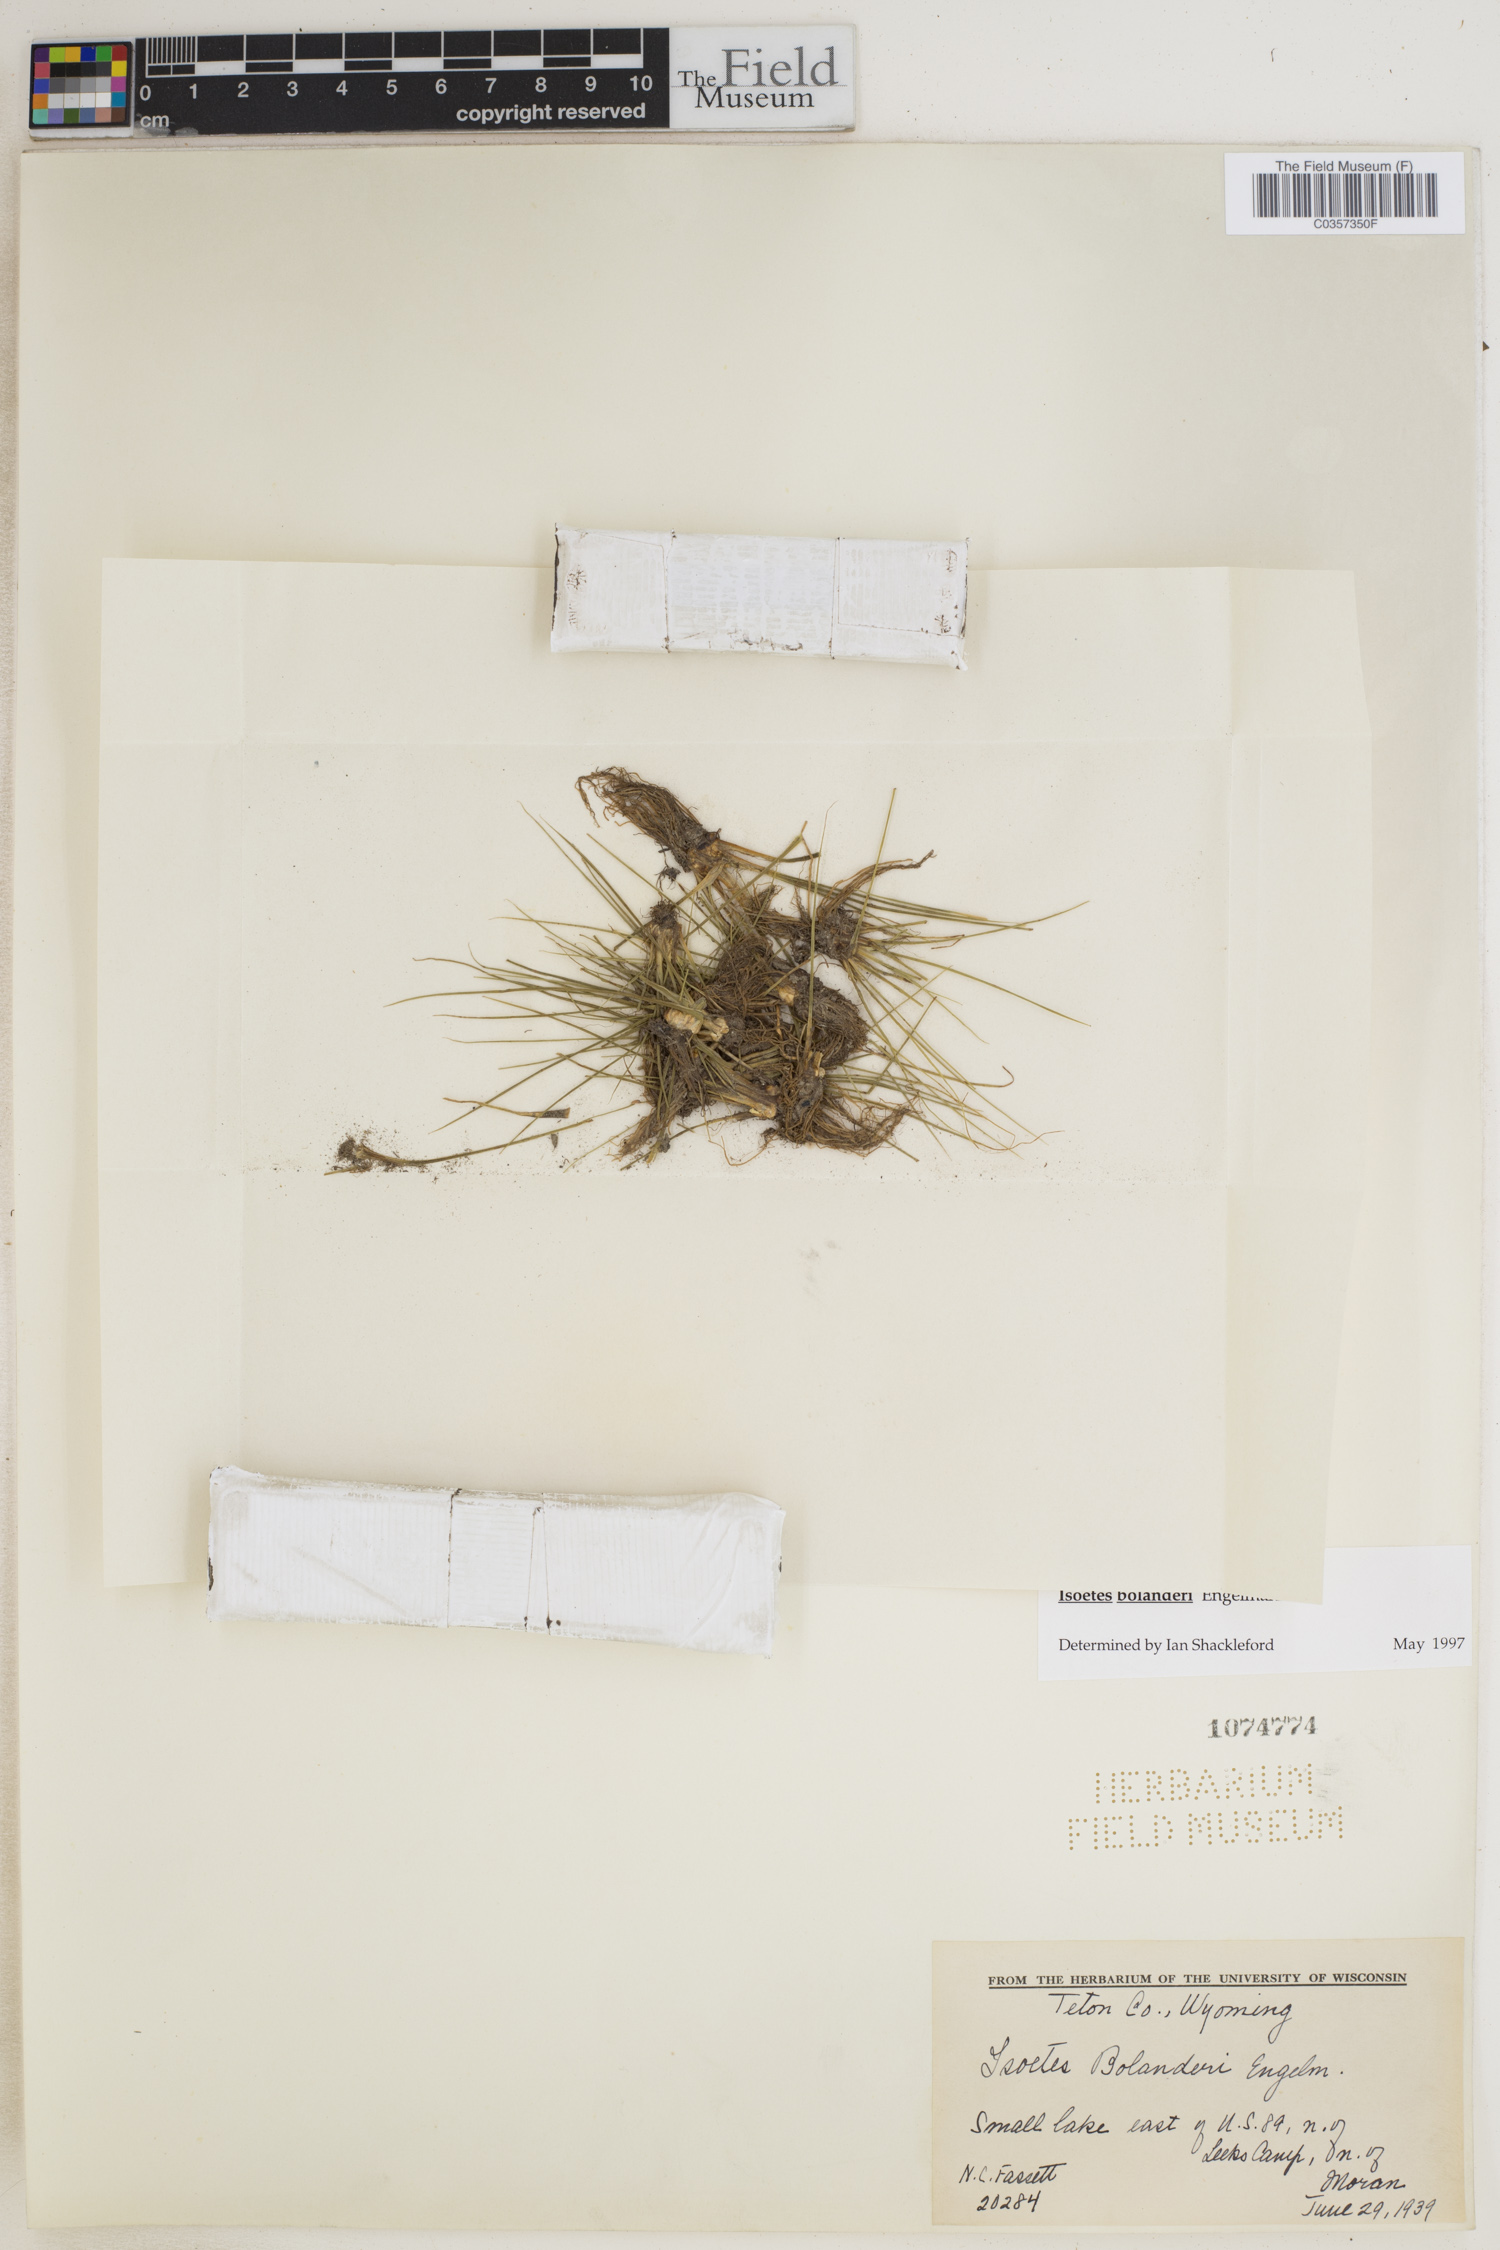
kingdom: Plantae
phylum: Tracheophyta
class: Lycopodiopsida
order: Isoetales
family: Isoetaceae
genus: Isoetes
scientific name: Isoetes bolanderi
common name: Bolander's quillwort
